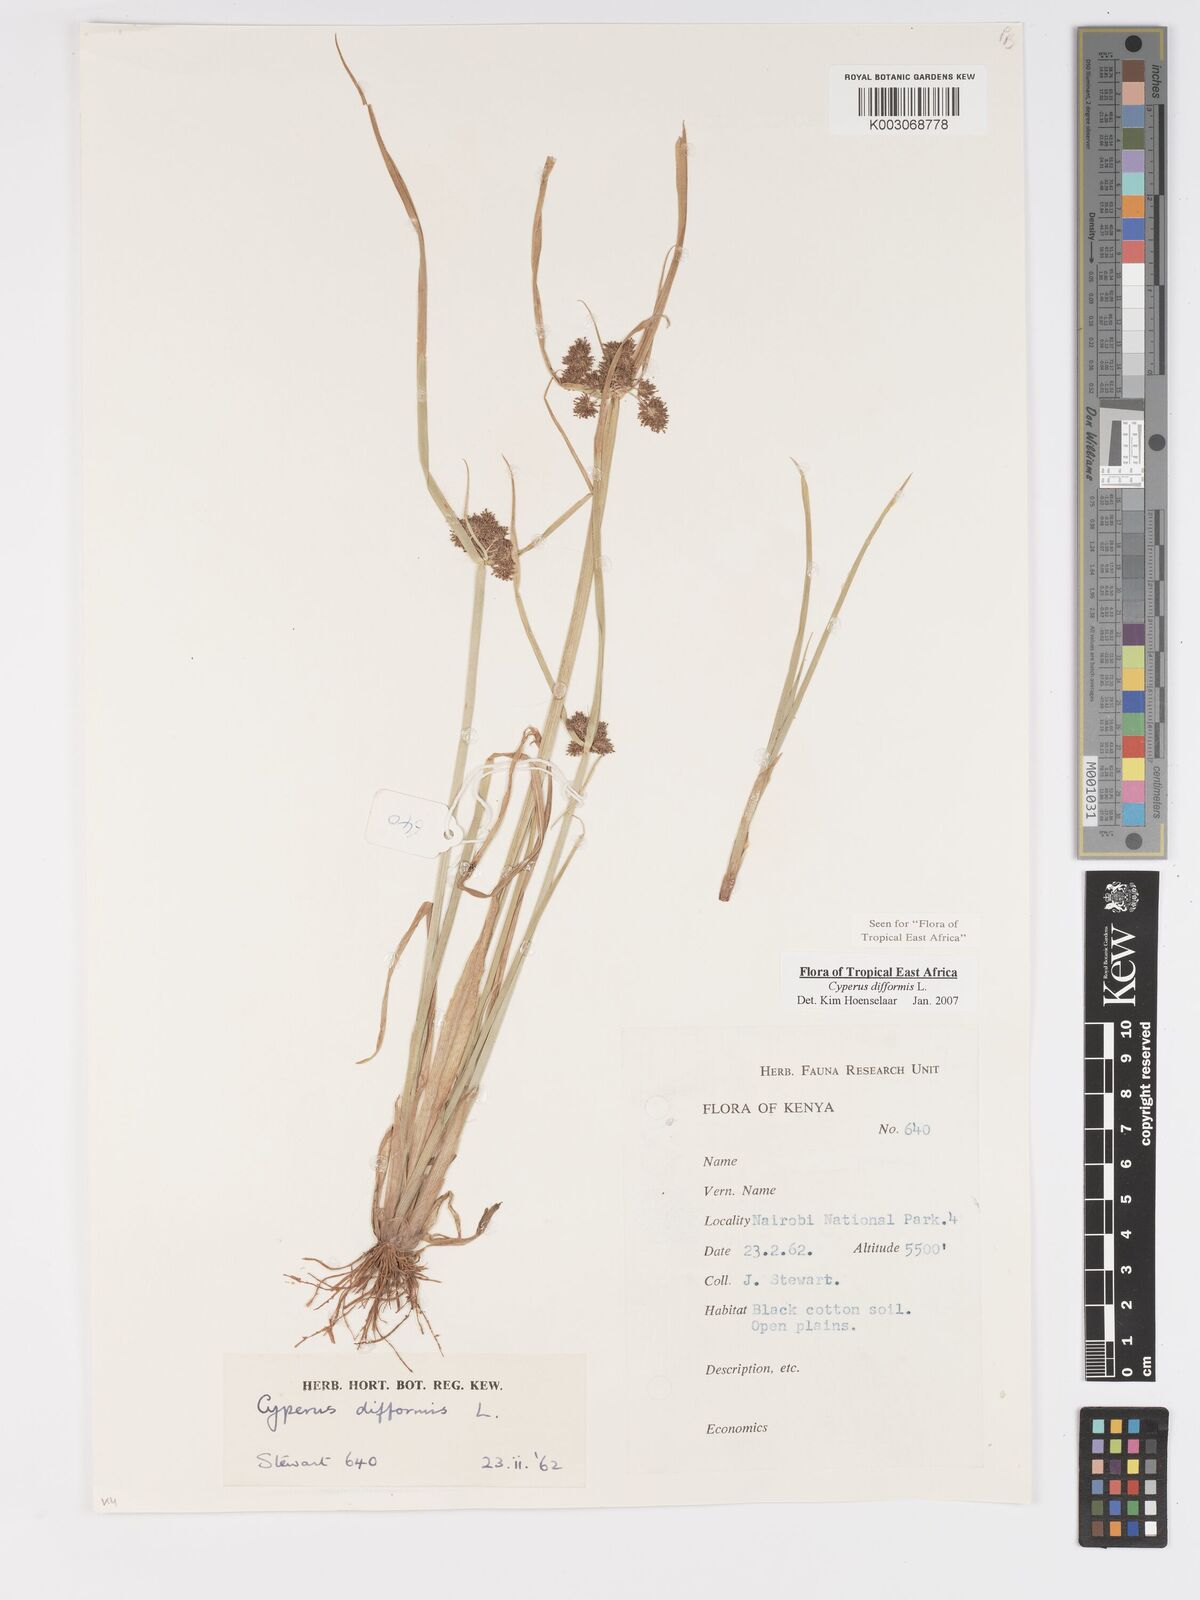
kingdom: Plantae
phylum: Tracheophyta
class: Liliopsida
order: Poales
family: Cyperaceae
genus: Cyperus
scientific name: Cyperus difformis
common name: Variable flatsedge
